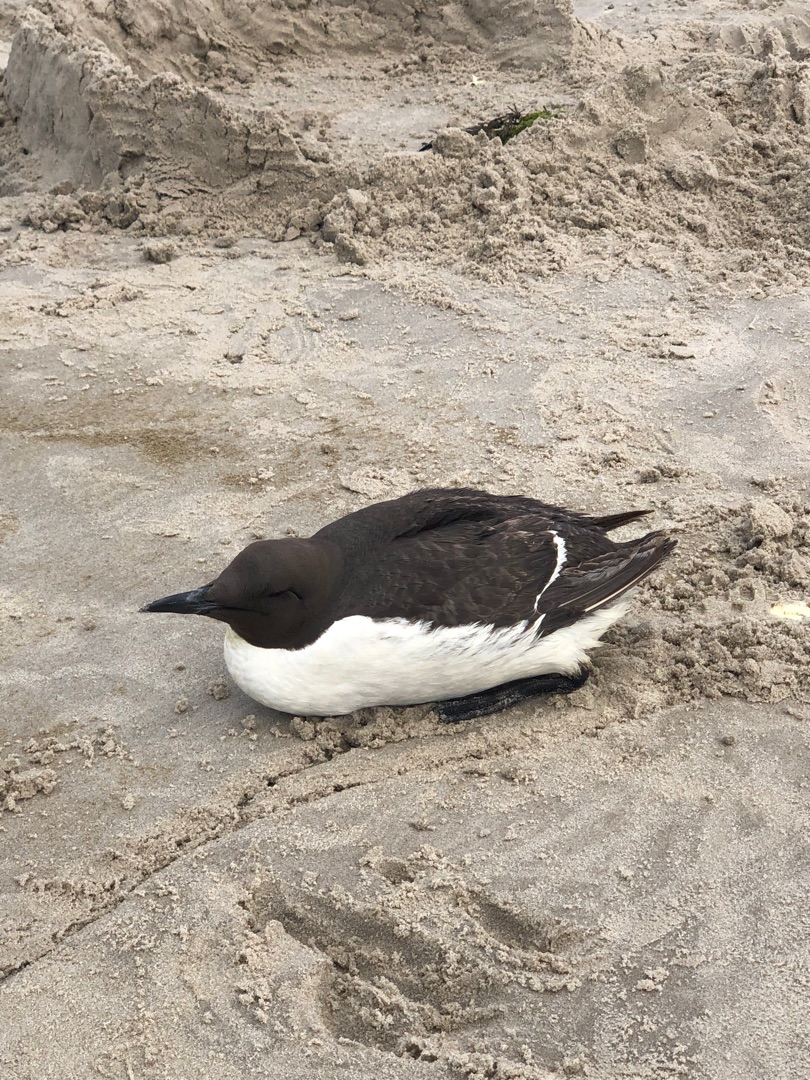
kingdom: Animalia
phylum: Chordata
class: Aves
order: Charadriiformes
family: Alcidae
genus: Uria
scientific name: Uria aalge
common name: Lomvie
